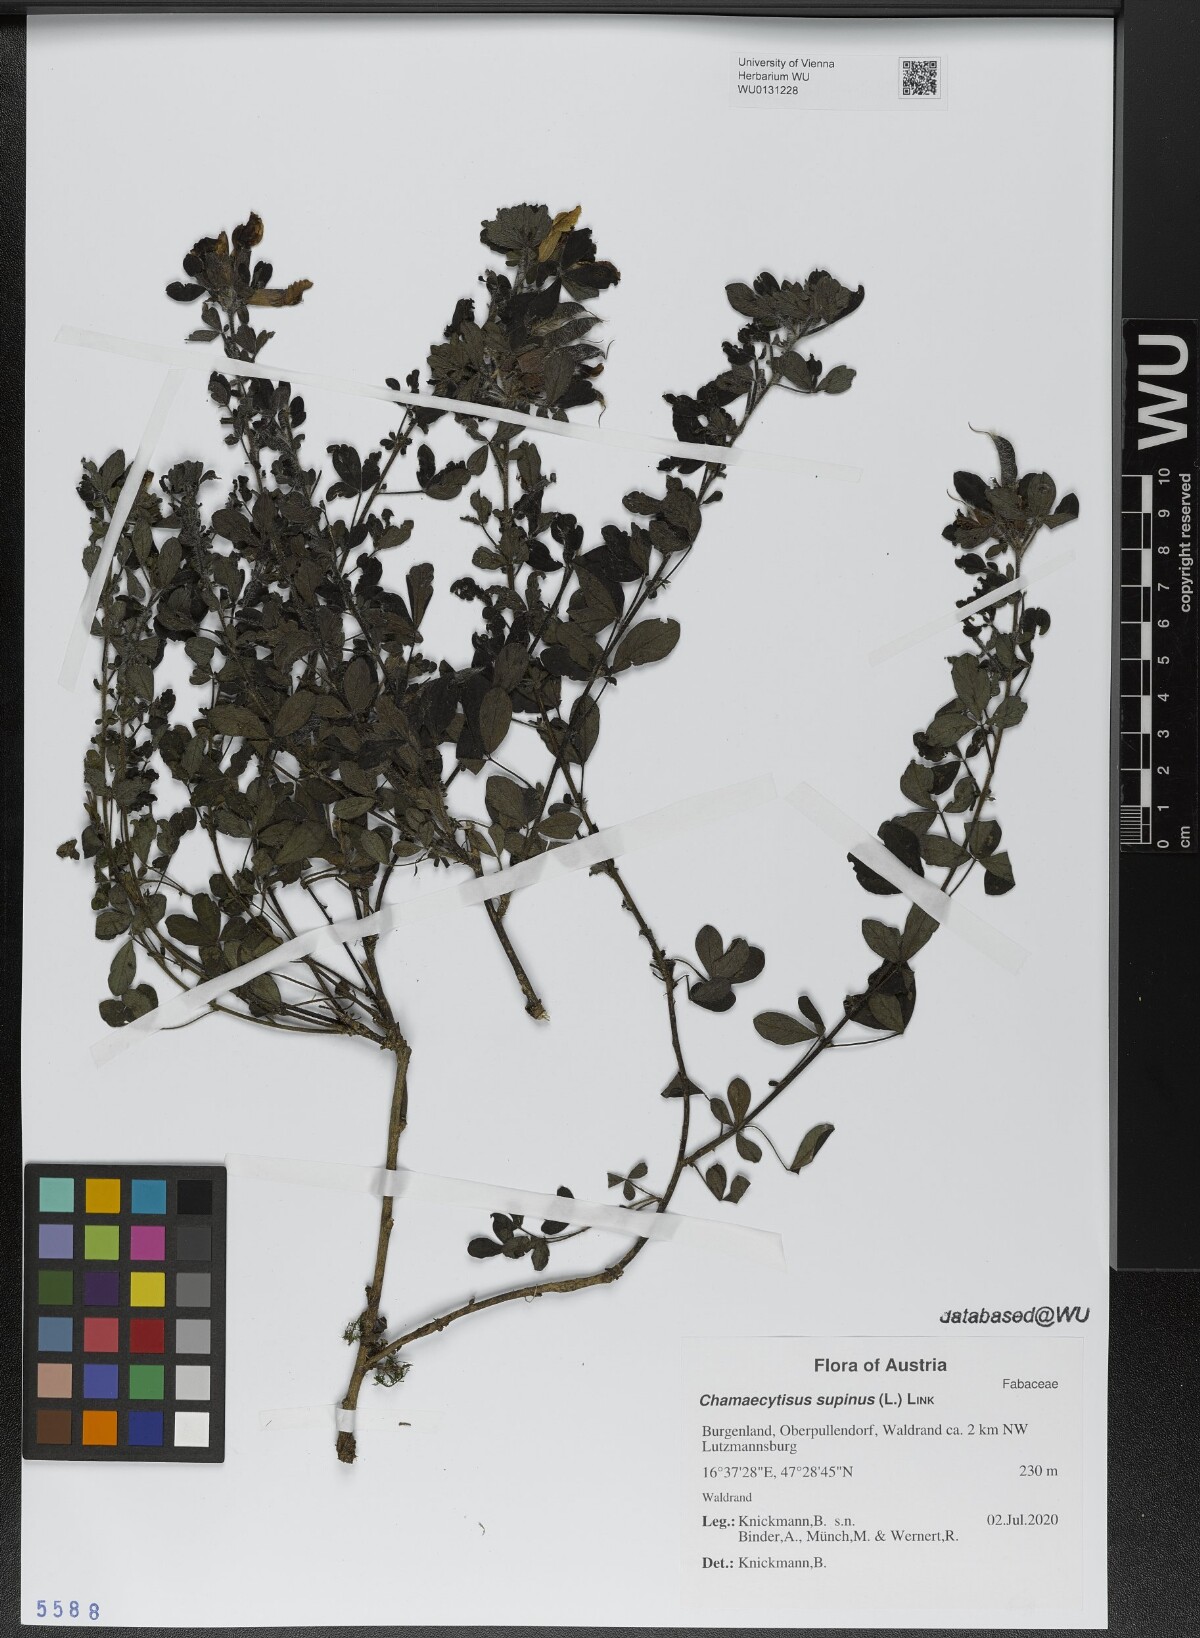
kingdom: Plantae
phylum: Tracheophyta
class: Magnoliopsida
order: Fabales
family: Fabaceae
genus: Chamaecytisus
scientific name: Chamaecytisus supinus
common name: Clustered broom
